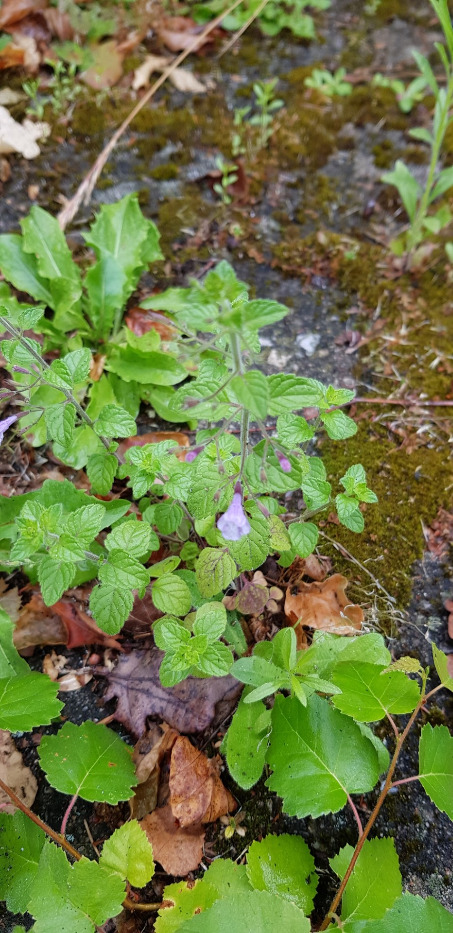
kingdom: Plantae
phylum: Tracheophyta
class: Magnoliopsida
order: Lamiales
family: Lamiaceae
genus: Clinopodium
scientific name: Clinopodium menthifolium
